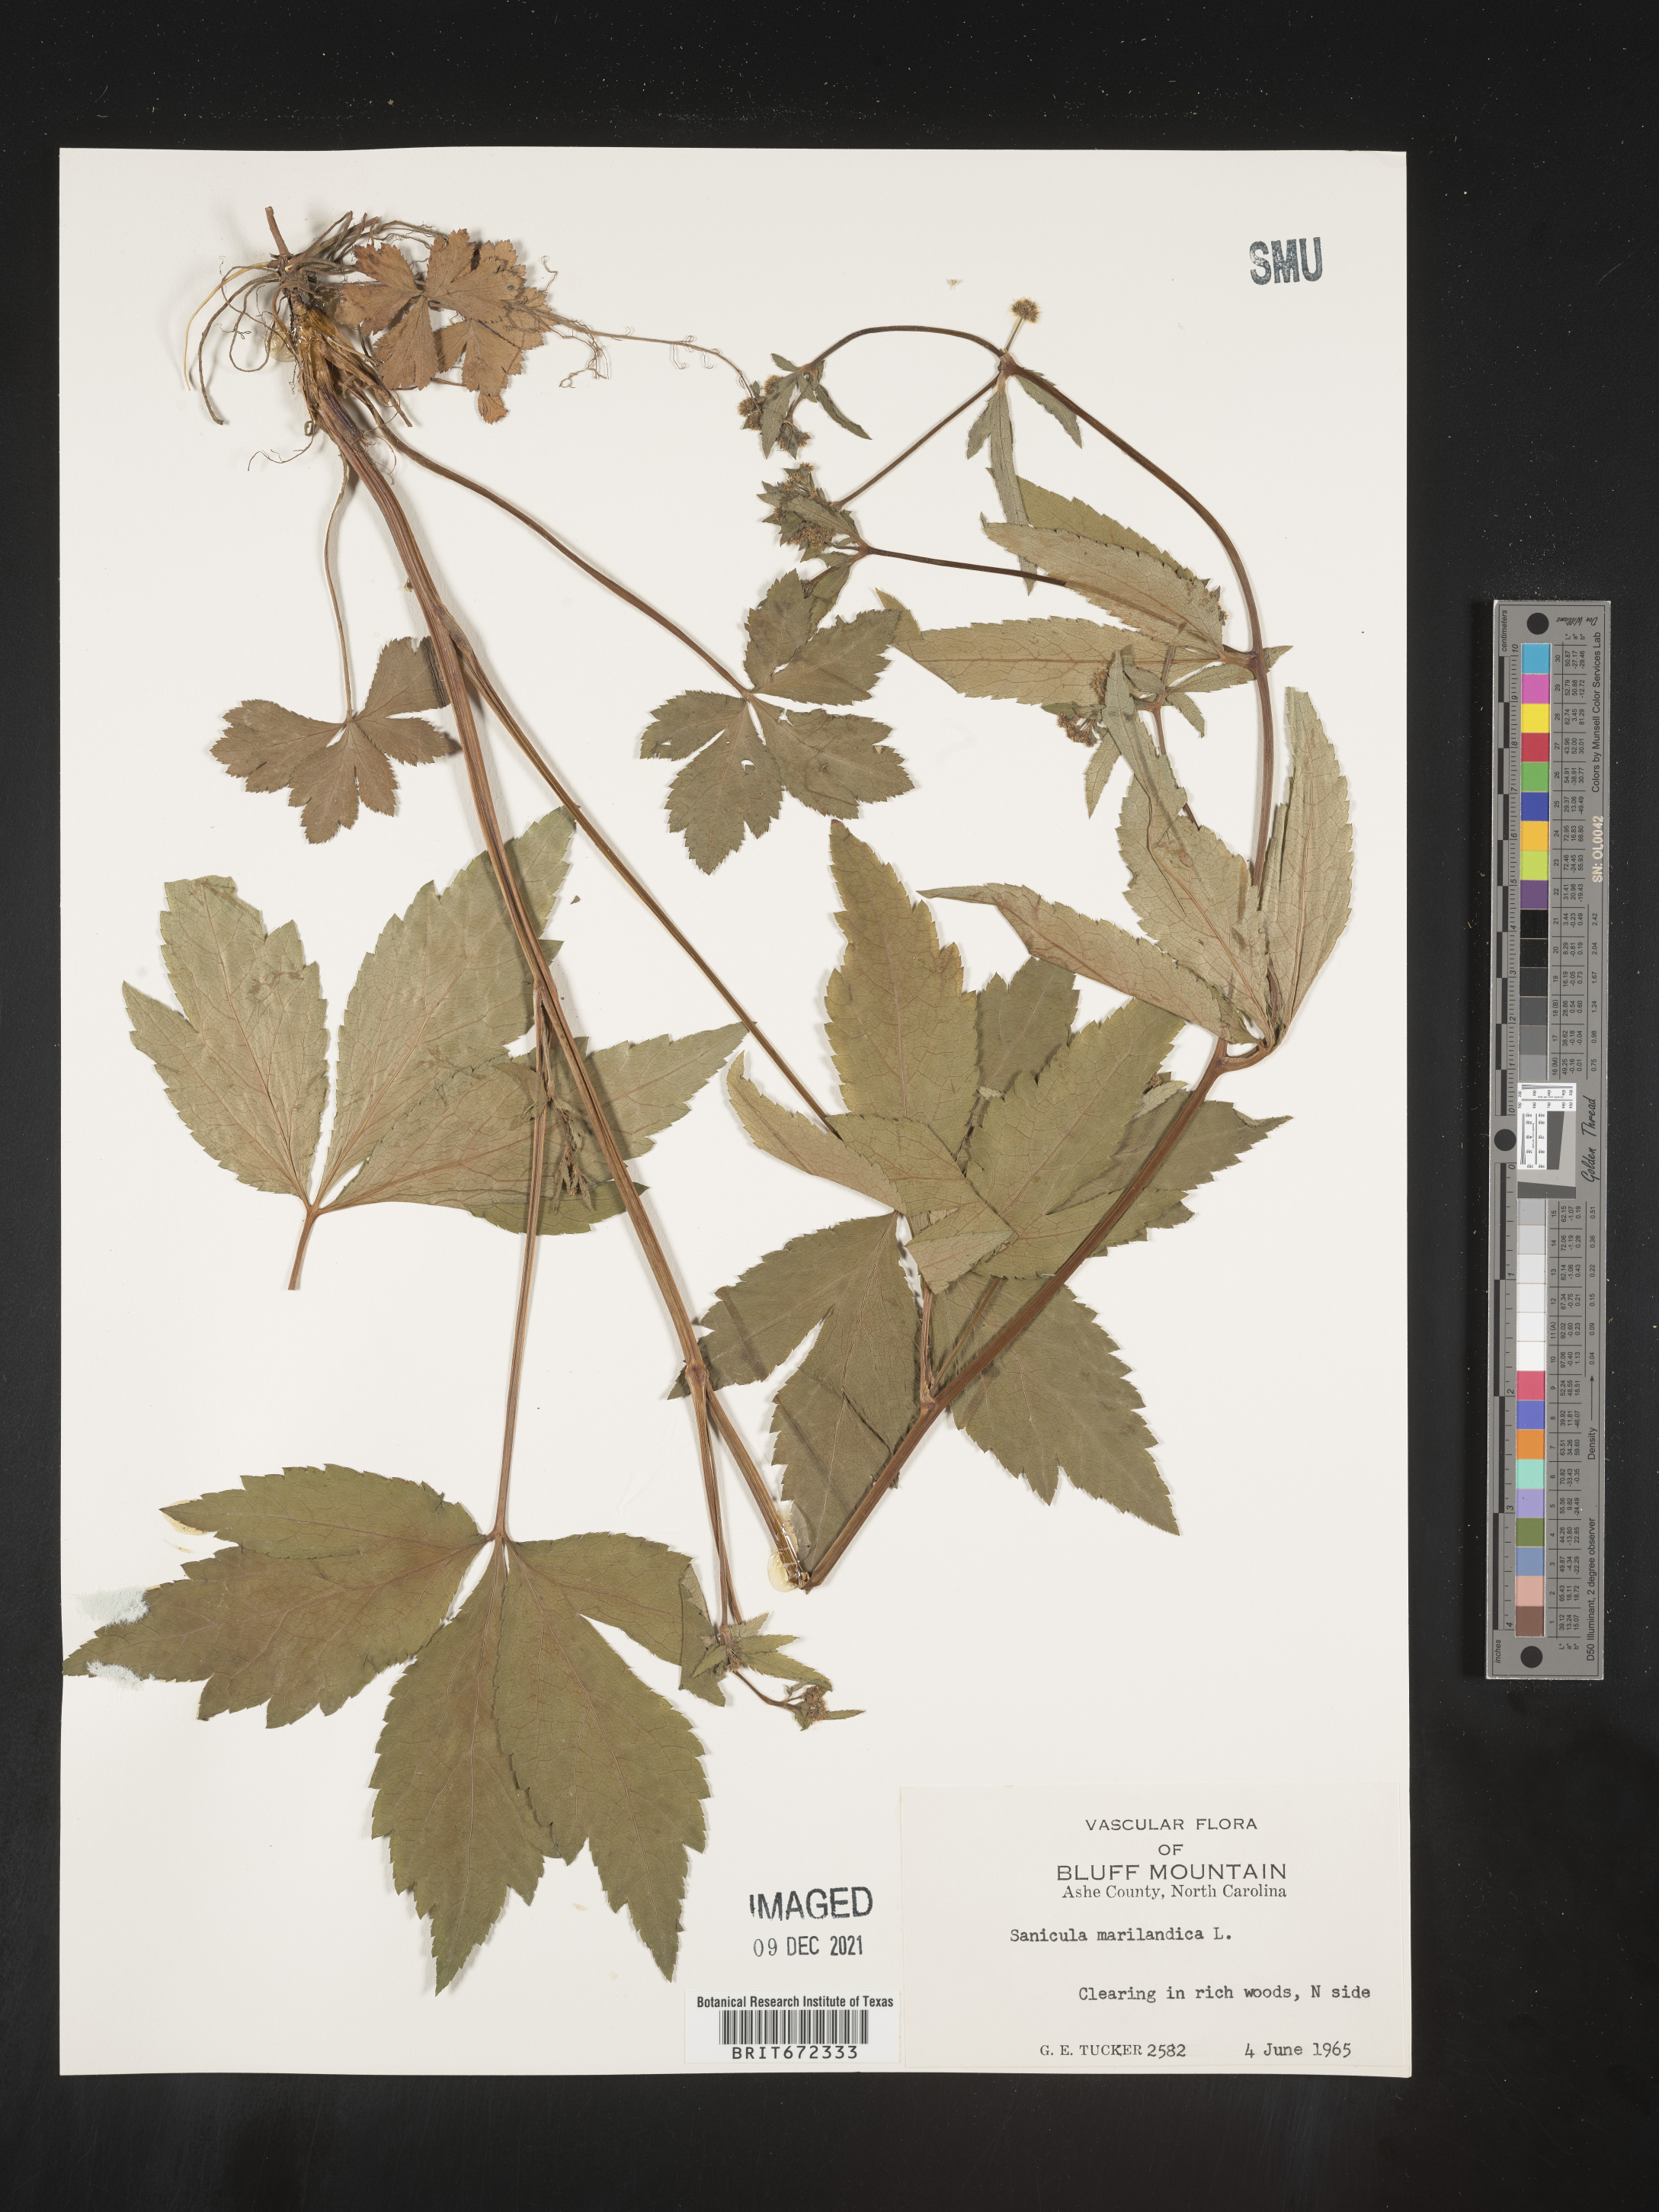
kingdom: Plantae
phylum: Tracheophyta
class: Magnoliopsida
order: Apiales
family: Apiaceae
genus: Sanicula
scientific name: Sanicula marilandica
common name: Black snakeroot
